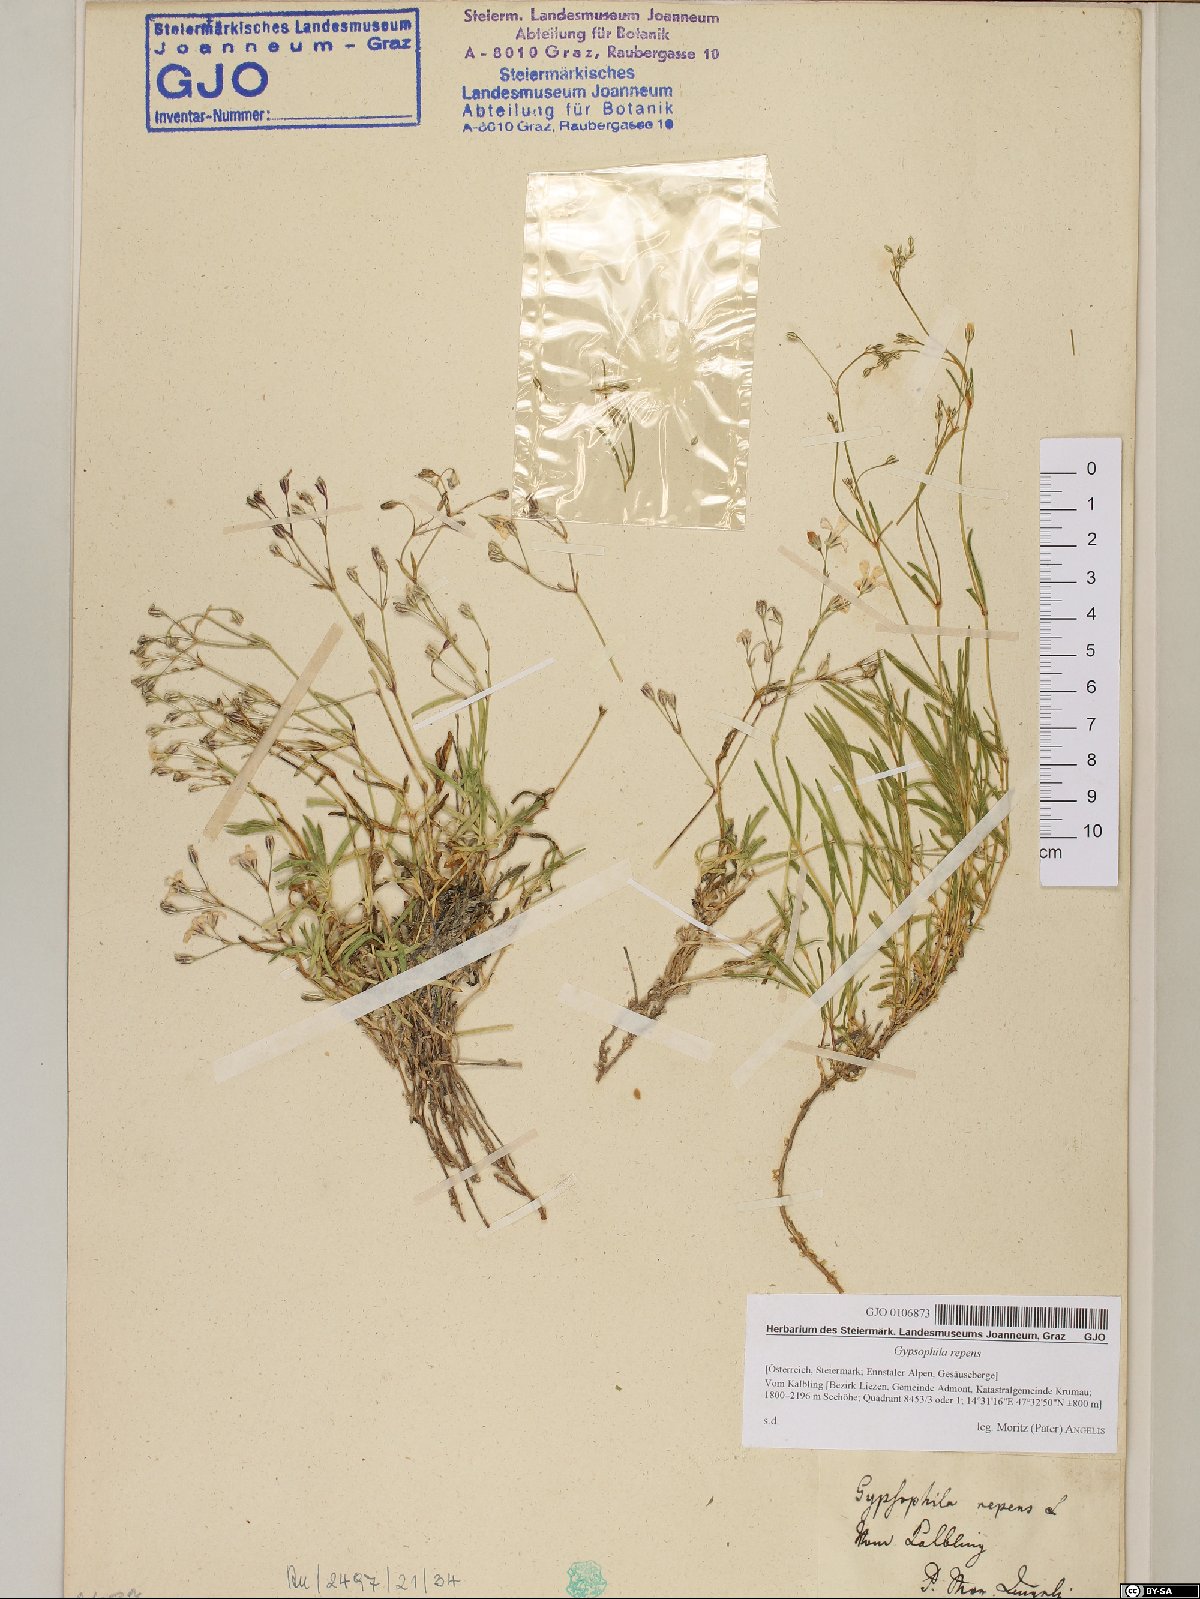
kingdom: Plantae
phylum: Tracheophyta
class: Magnoliopsida
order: Caryophyllales
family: Caryophyllaceae
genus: Gypsophila
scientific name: Gypsophila repens
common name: Creeping baby's-breath
